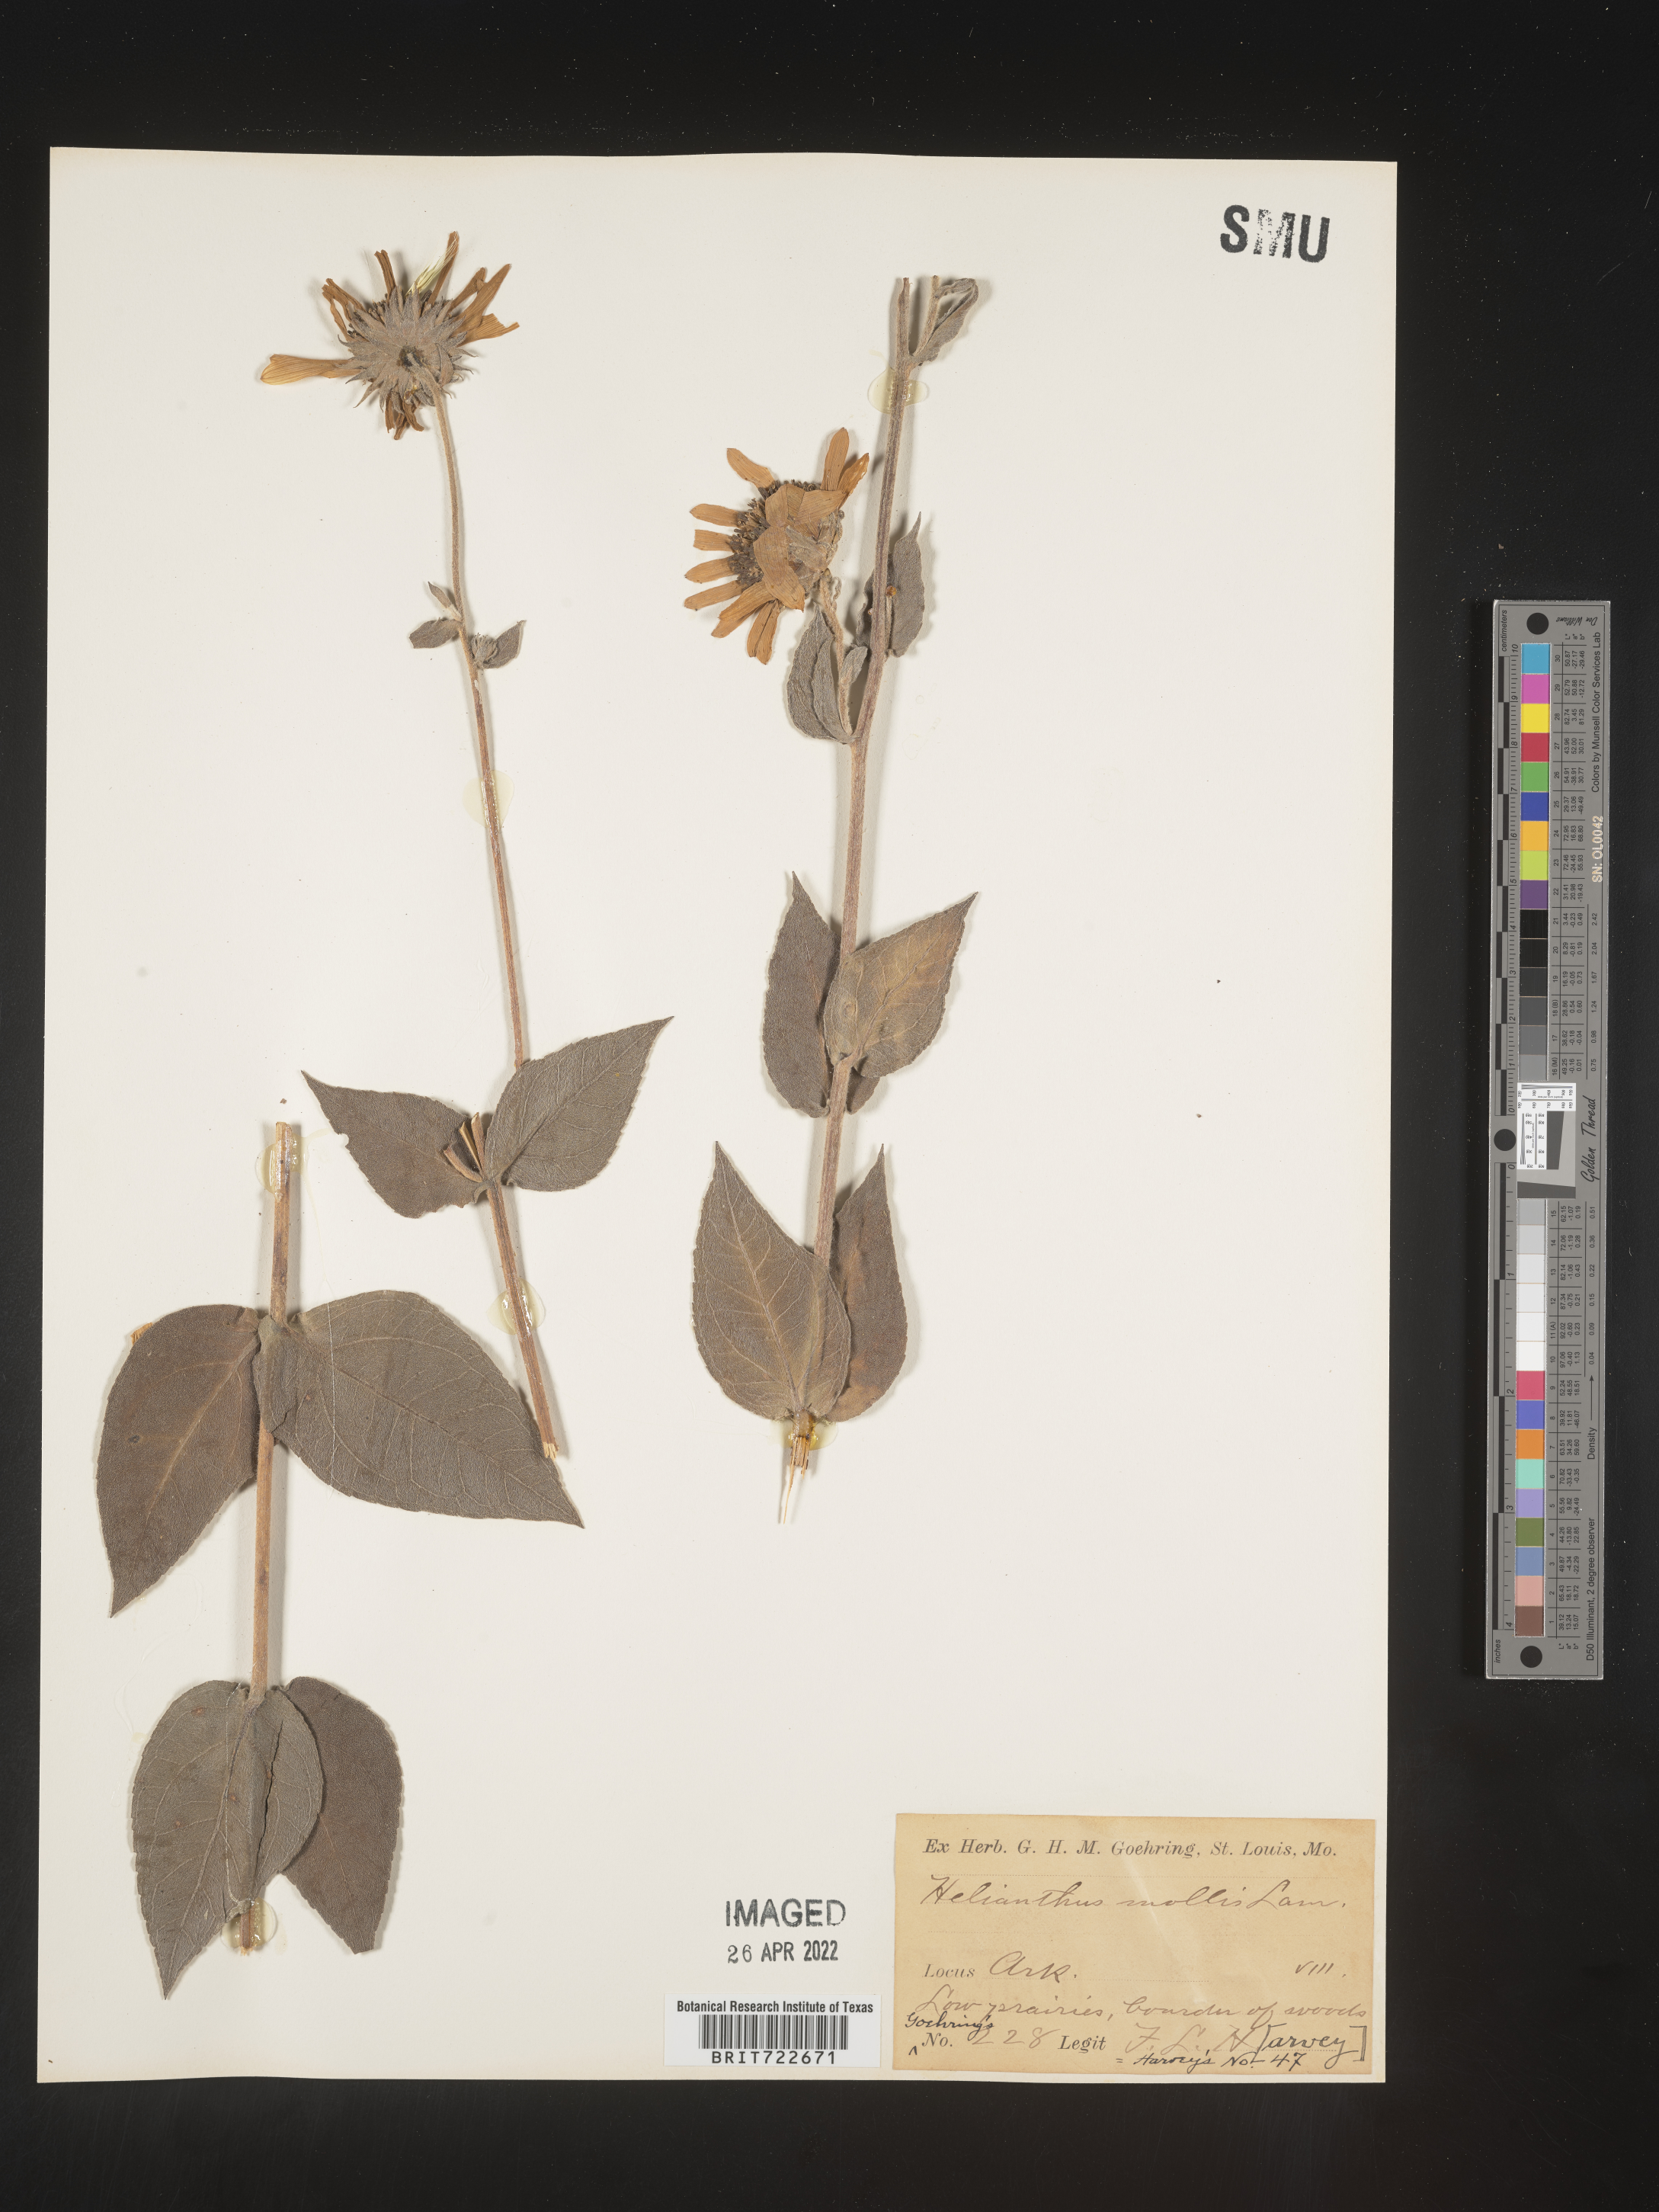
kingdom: Plantae
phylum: Tracheophyta
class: Magnoliopsida
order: Asterales
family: Asteraceae
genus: Helianthus
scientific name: Helianthus mollis
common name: Ashy sunflower
